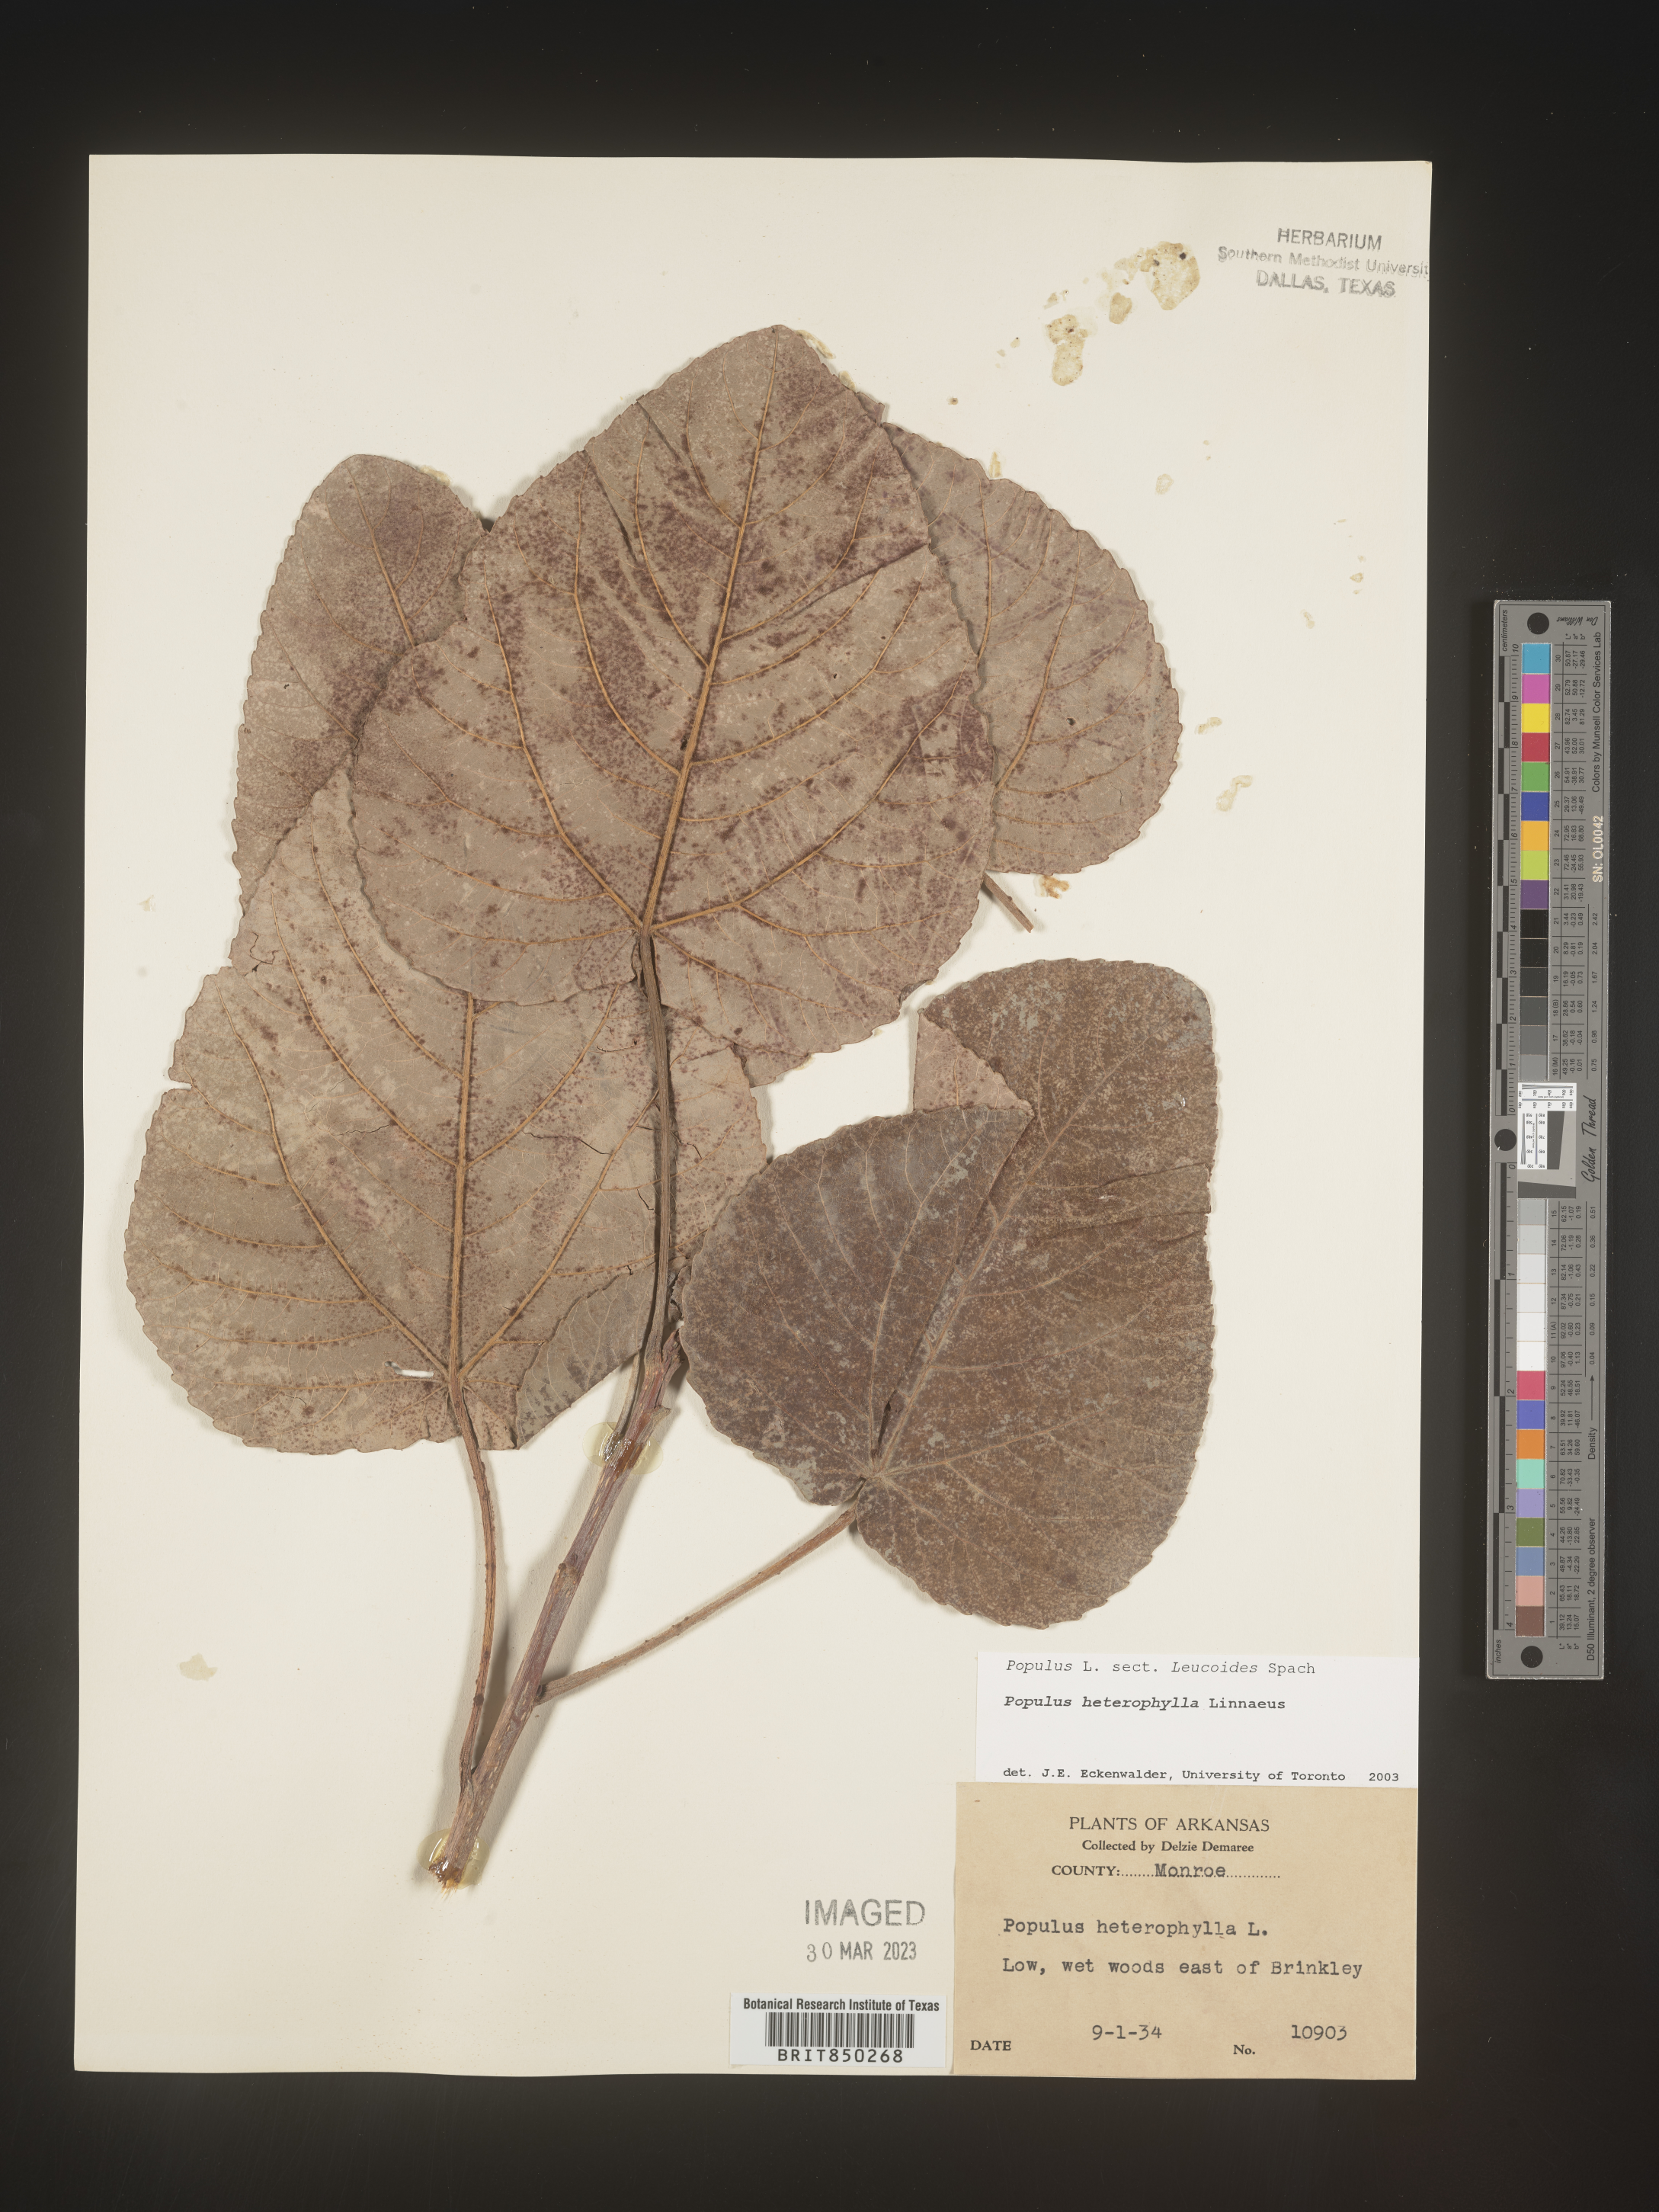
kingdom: Plantae
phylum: Tracheophyta
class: Magnoliopsida
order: Malpighiales
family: Salicaceae
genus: Populus
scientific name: Populus heterophylla
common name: Downy poplar
